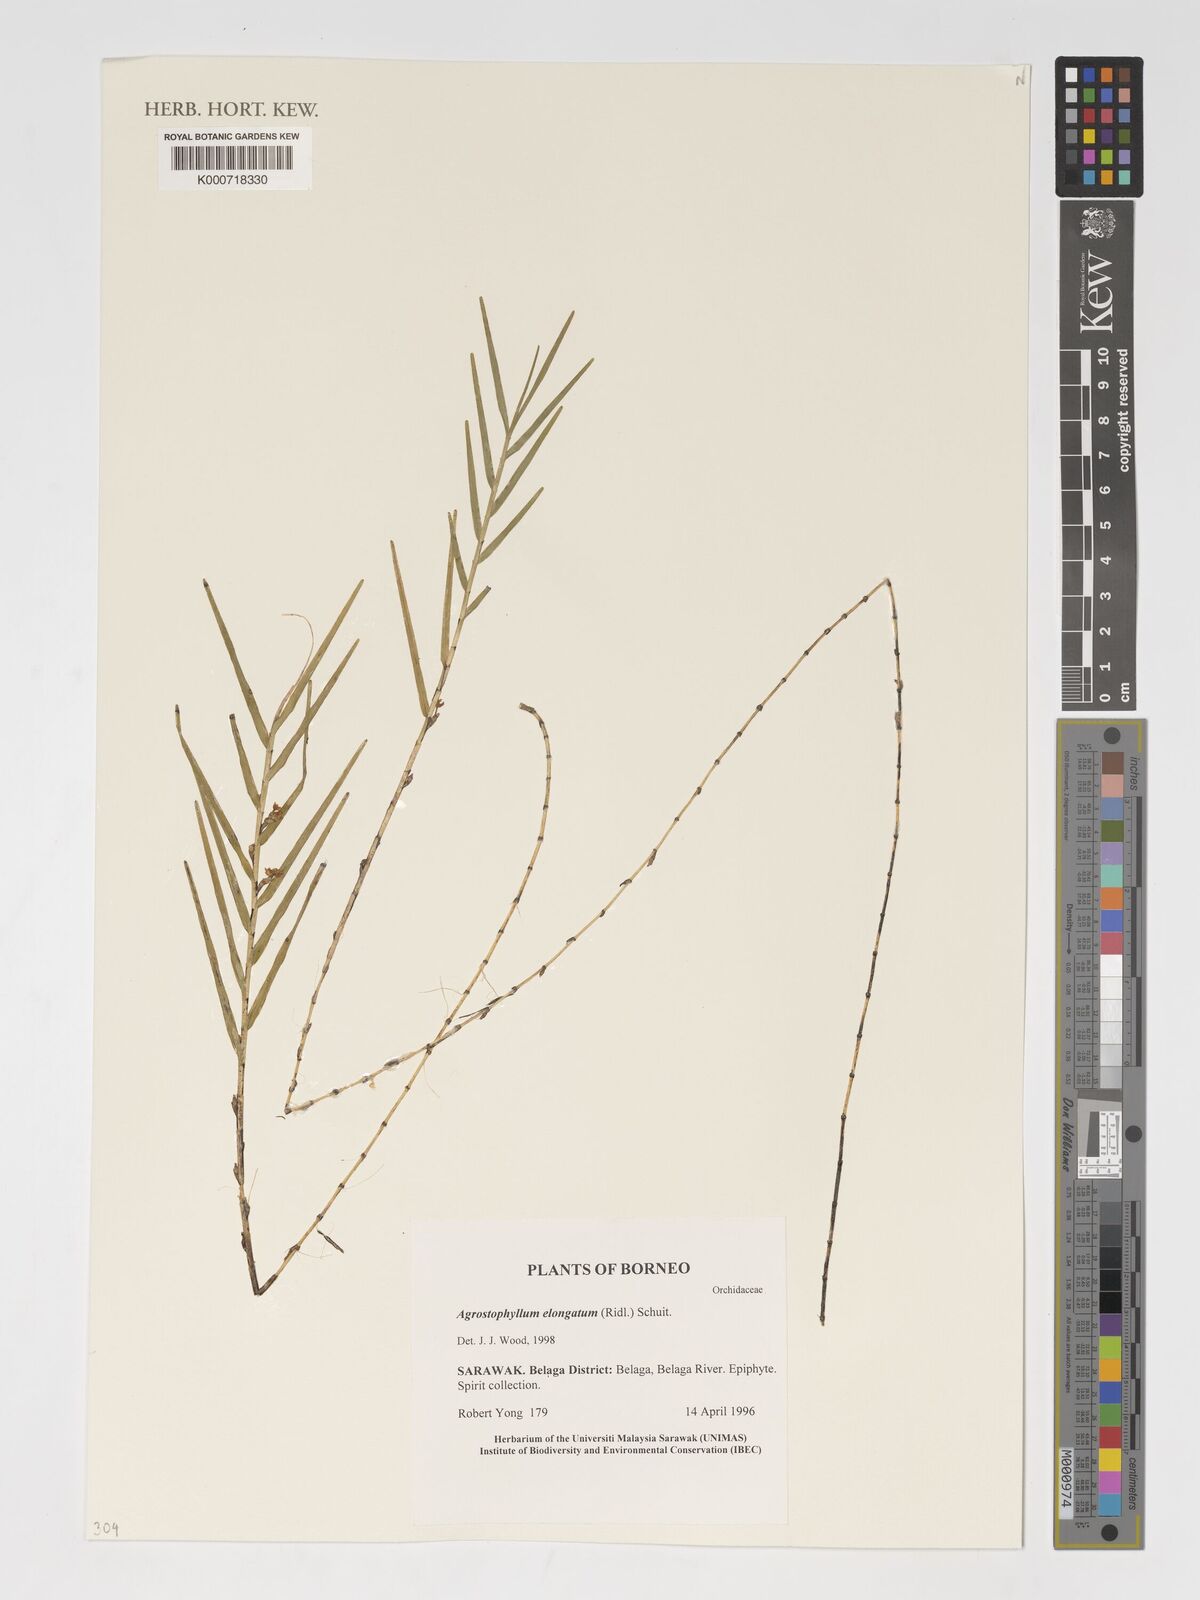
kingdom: Plantae
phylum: Tracheophyta
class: Liliopsida
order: Asparagales
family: Orchidaceae
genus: Agrostophyllum
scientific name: Agrostophyllum elongatum
